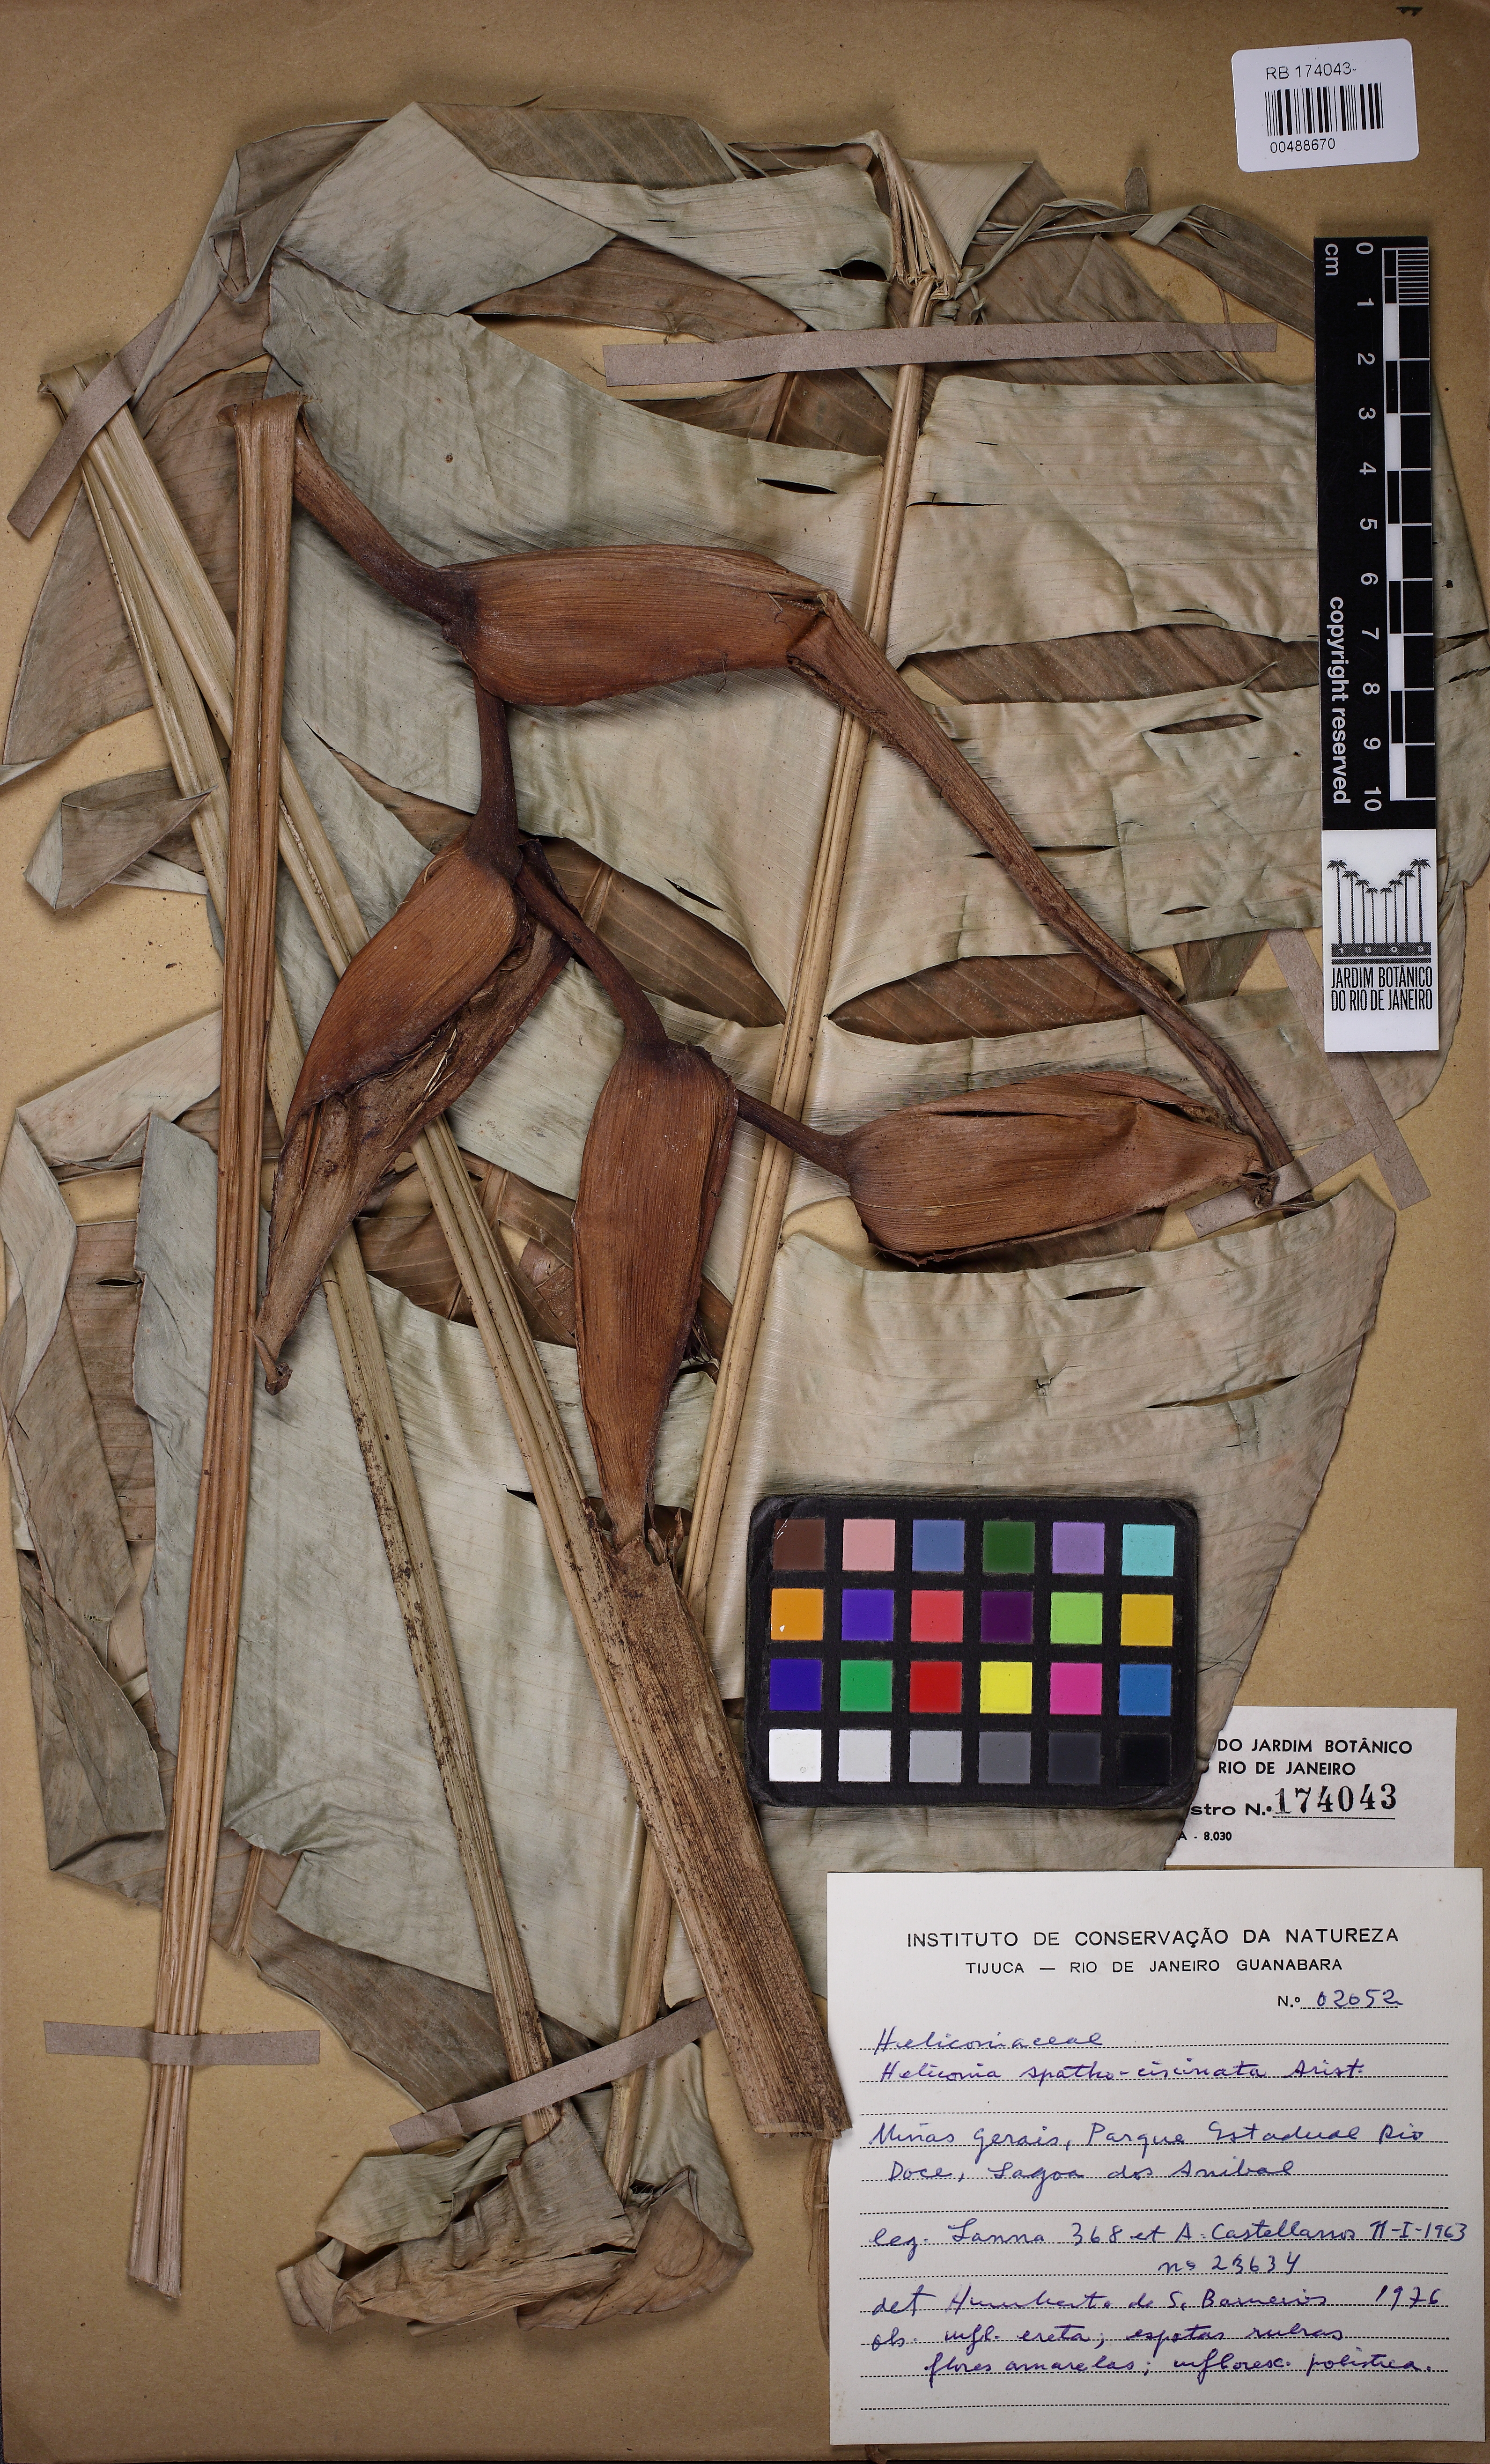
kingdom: Plantae
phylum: Tracheophyta
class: Liliopsida
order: Zingiberales
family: Heliconiaceae
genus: Heliconia
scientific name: Heliconia spathocircinata
